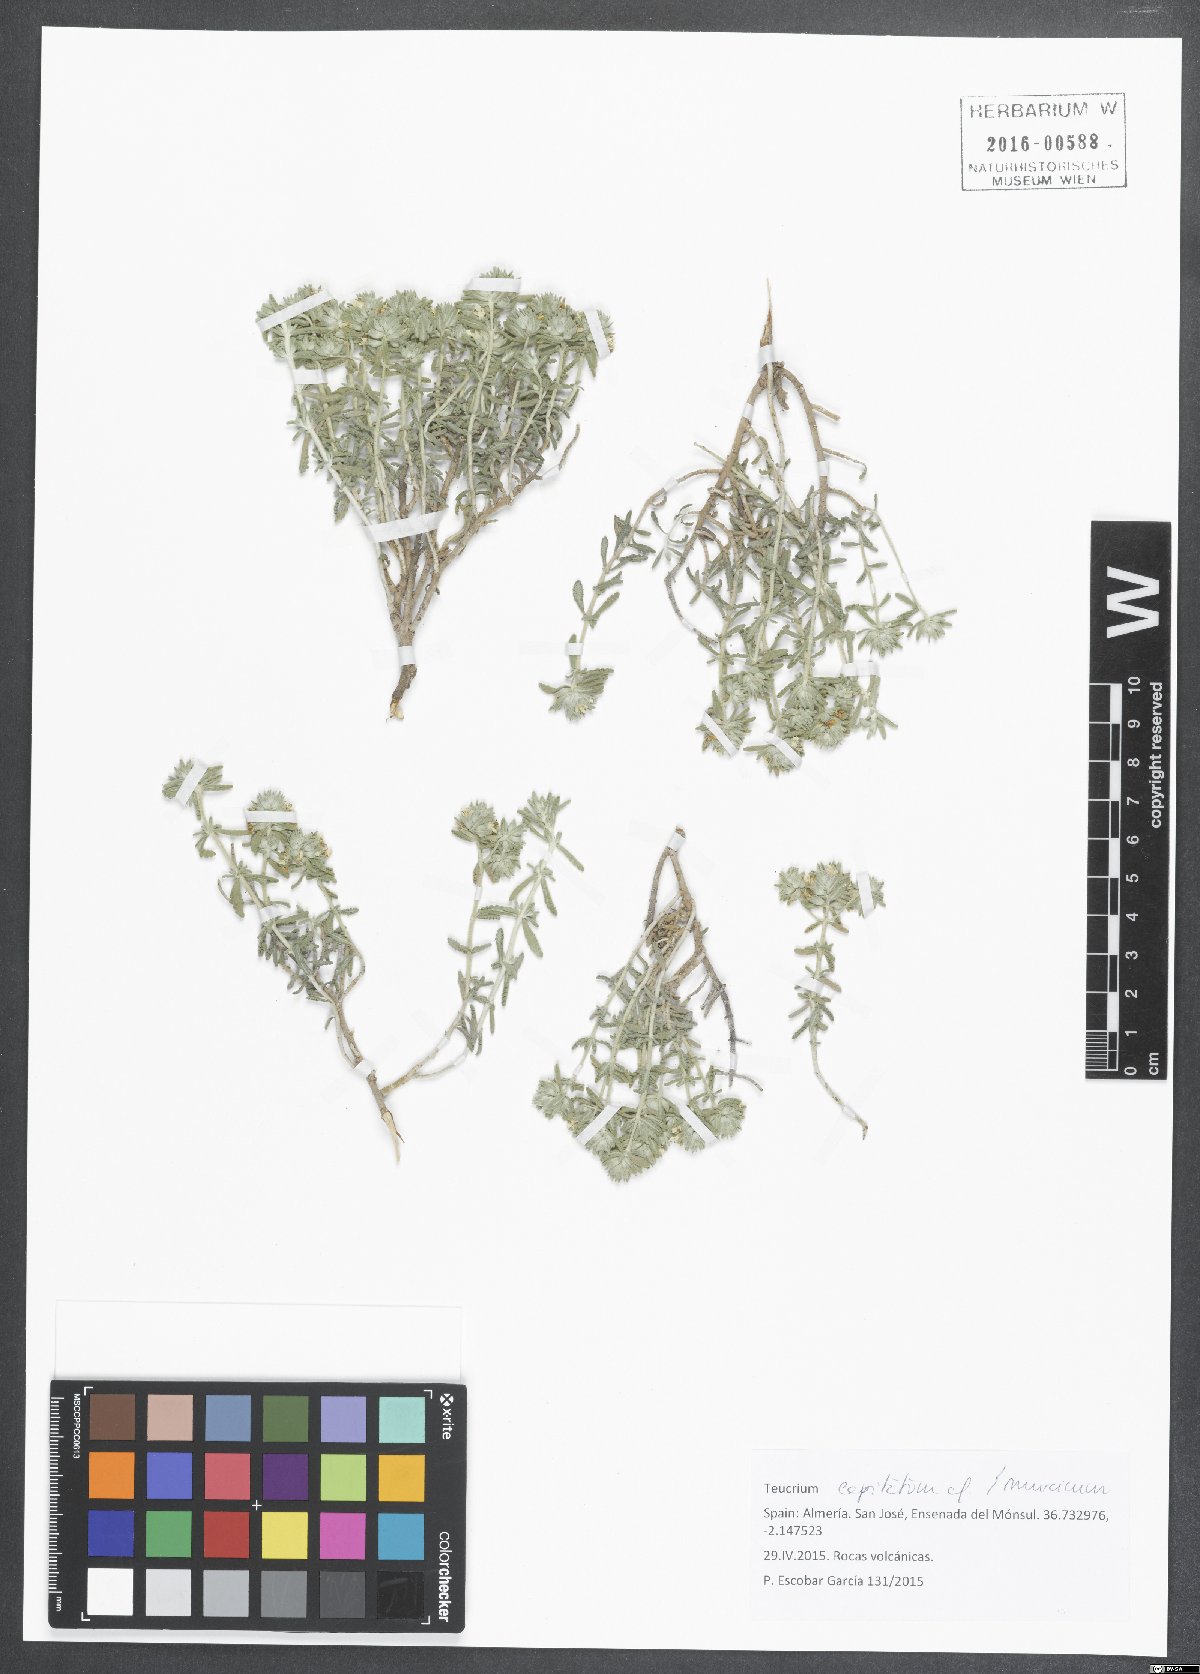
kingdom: Plantae
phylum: Tracheophyta
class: Magnoliopsida
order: Lamiales
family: Lamiaceae
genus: Teucrium
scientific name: Teucrium capitatum
